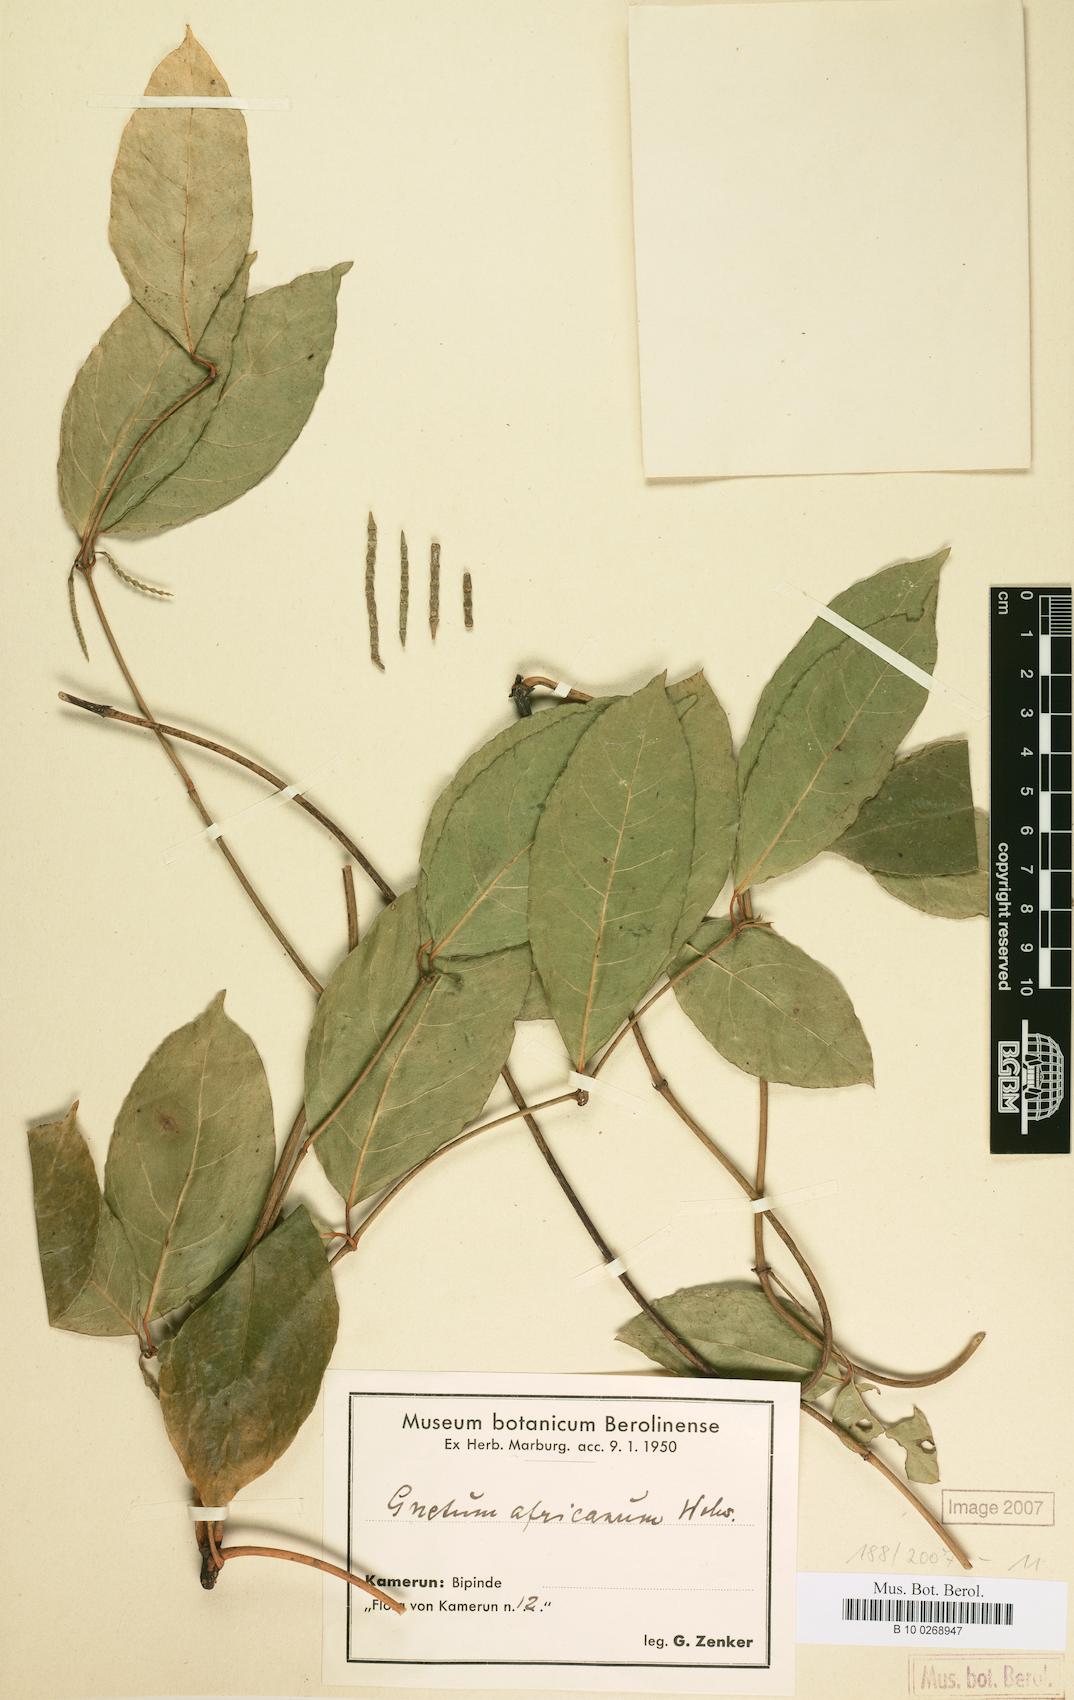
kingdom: Plantae
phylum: Tracheophyta
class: Gnetopsida
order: Gnetales
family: Gnetaceae
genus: Gnetum
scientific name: Gnetum buchholzianum
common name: Eru
